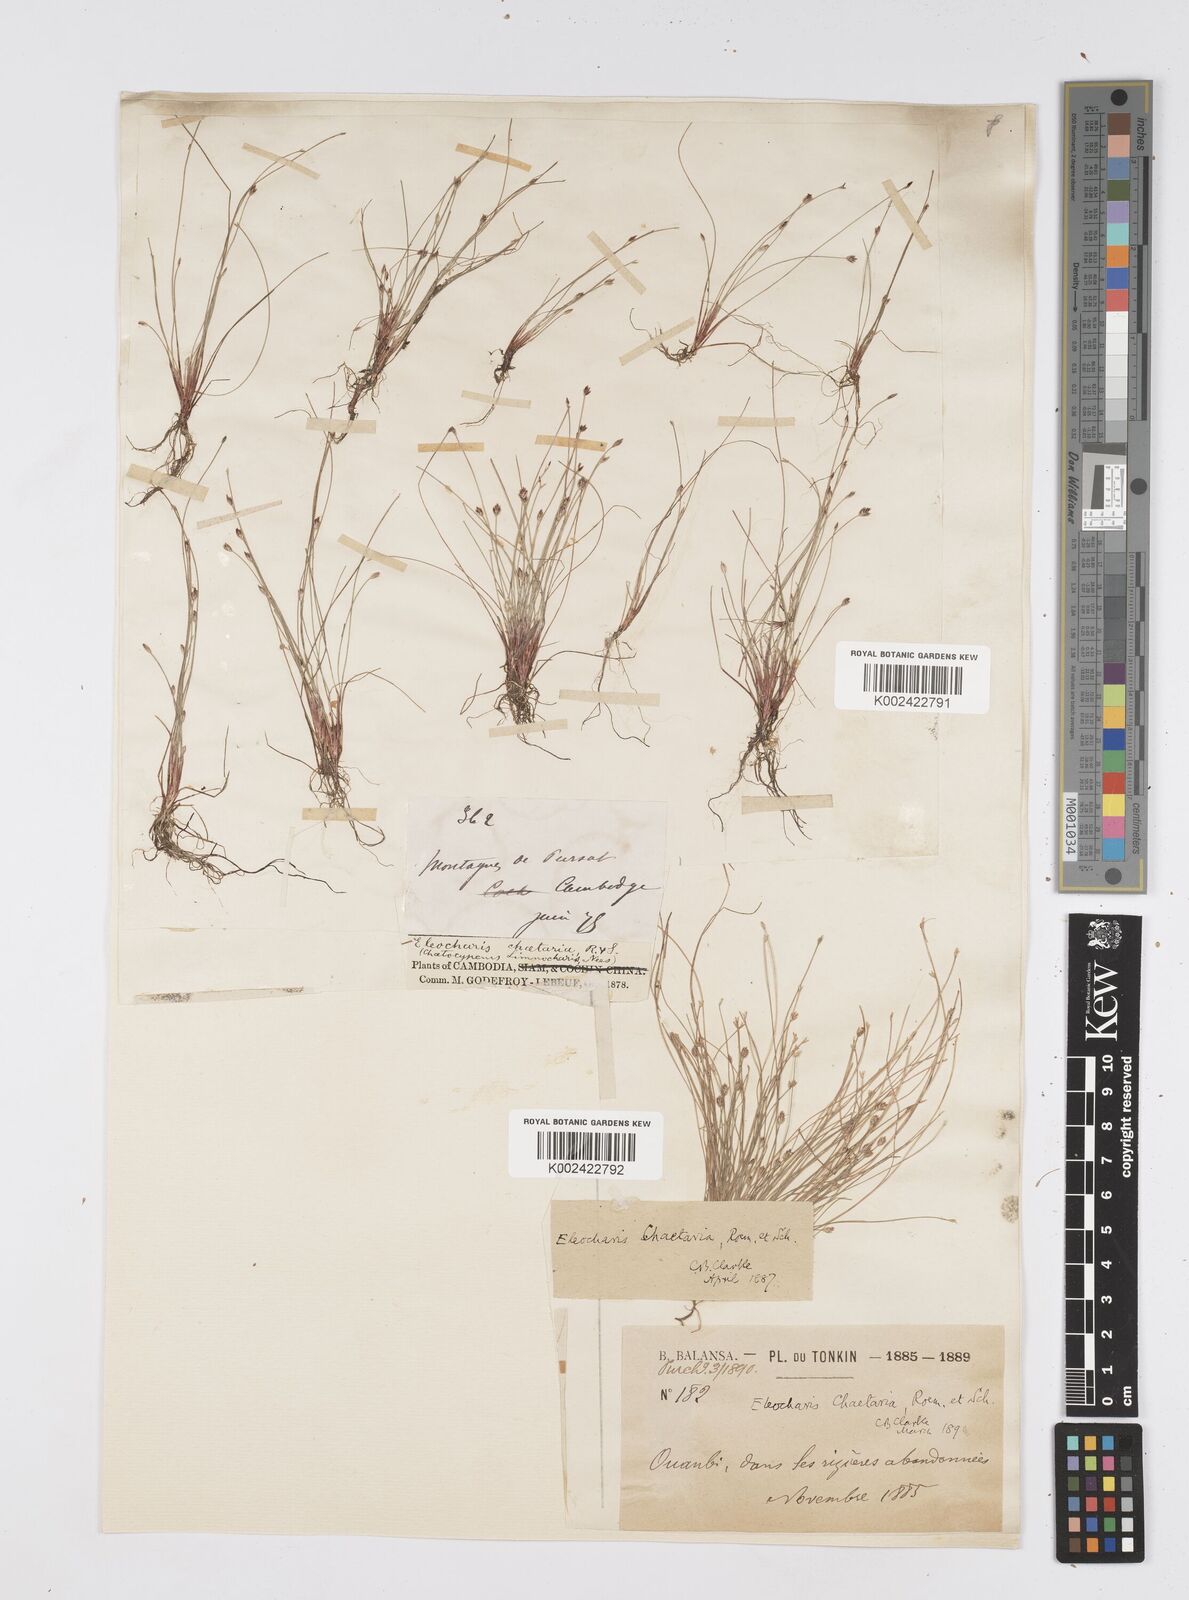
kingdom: Plantae
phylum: Tracheophyta
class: Liliopsida
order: Poales
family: Cyperaceae
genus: Eleocharis
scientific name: Eleocharis retroflexa
